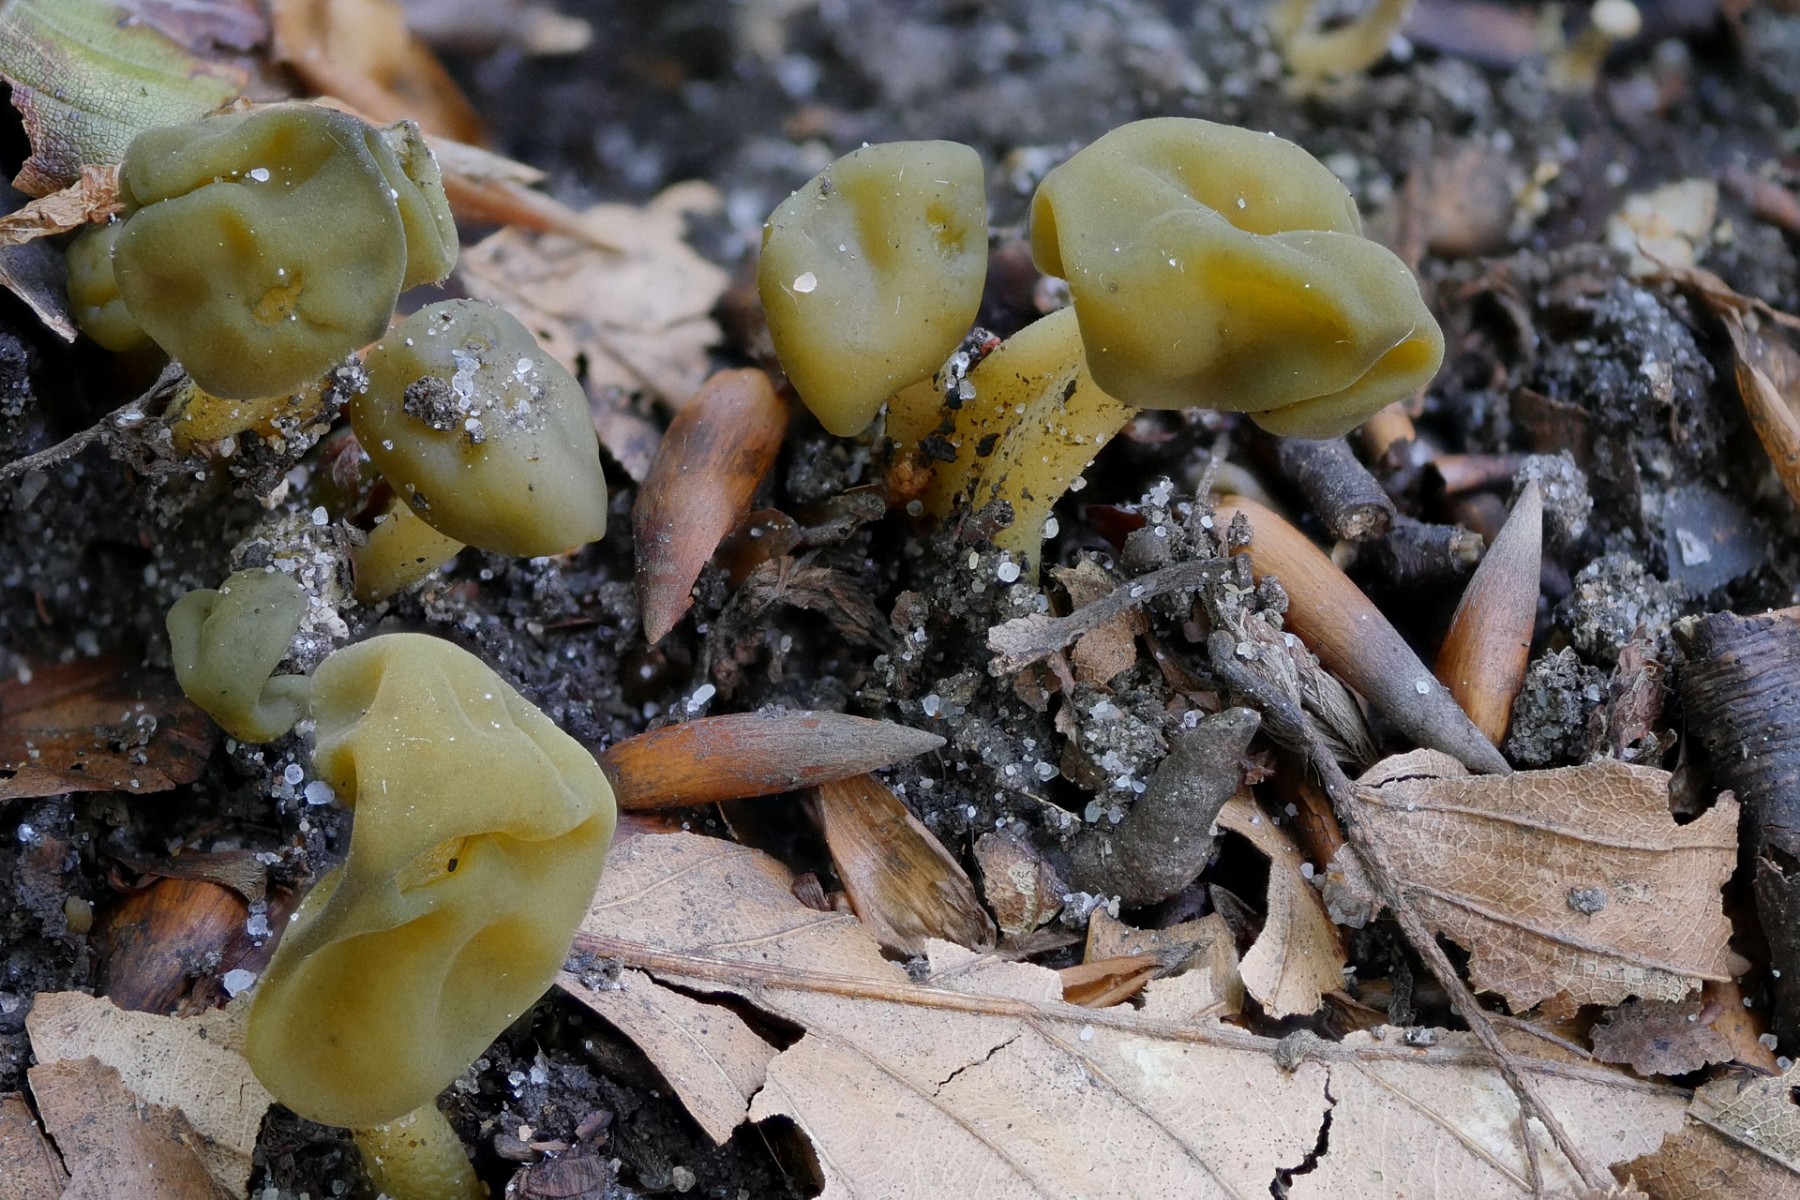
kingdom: Fungi
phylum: Ascomycota
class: Leotiomycetes
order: Leotiales
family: Leotiaceae
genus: Leotia
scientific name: Leotia lubrica
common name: ravsvamp
